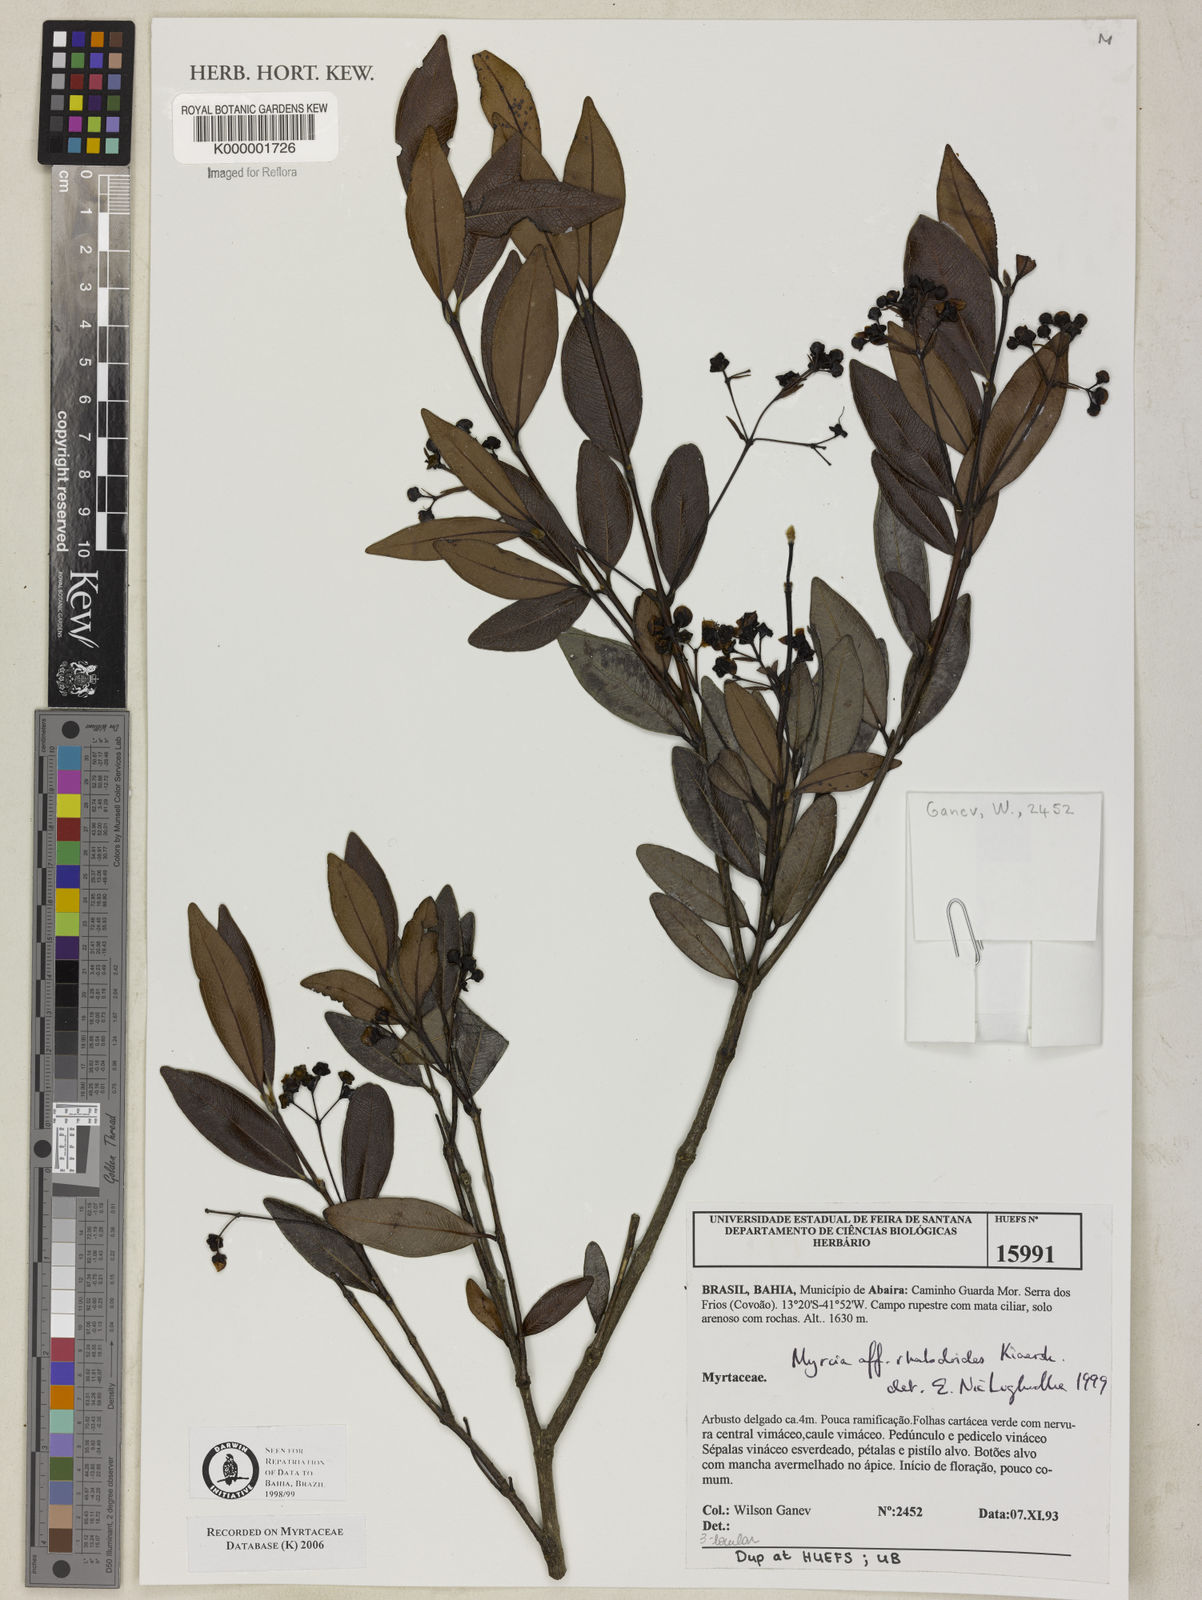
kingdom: Plantae
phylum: Tracheophyta
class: Magnoliopsida
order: Myrtales
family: Myrtaceae
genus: Myrcia
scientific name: Myrcia guianensis
